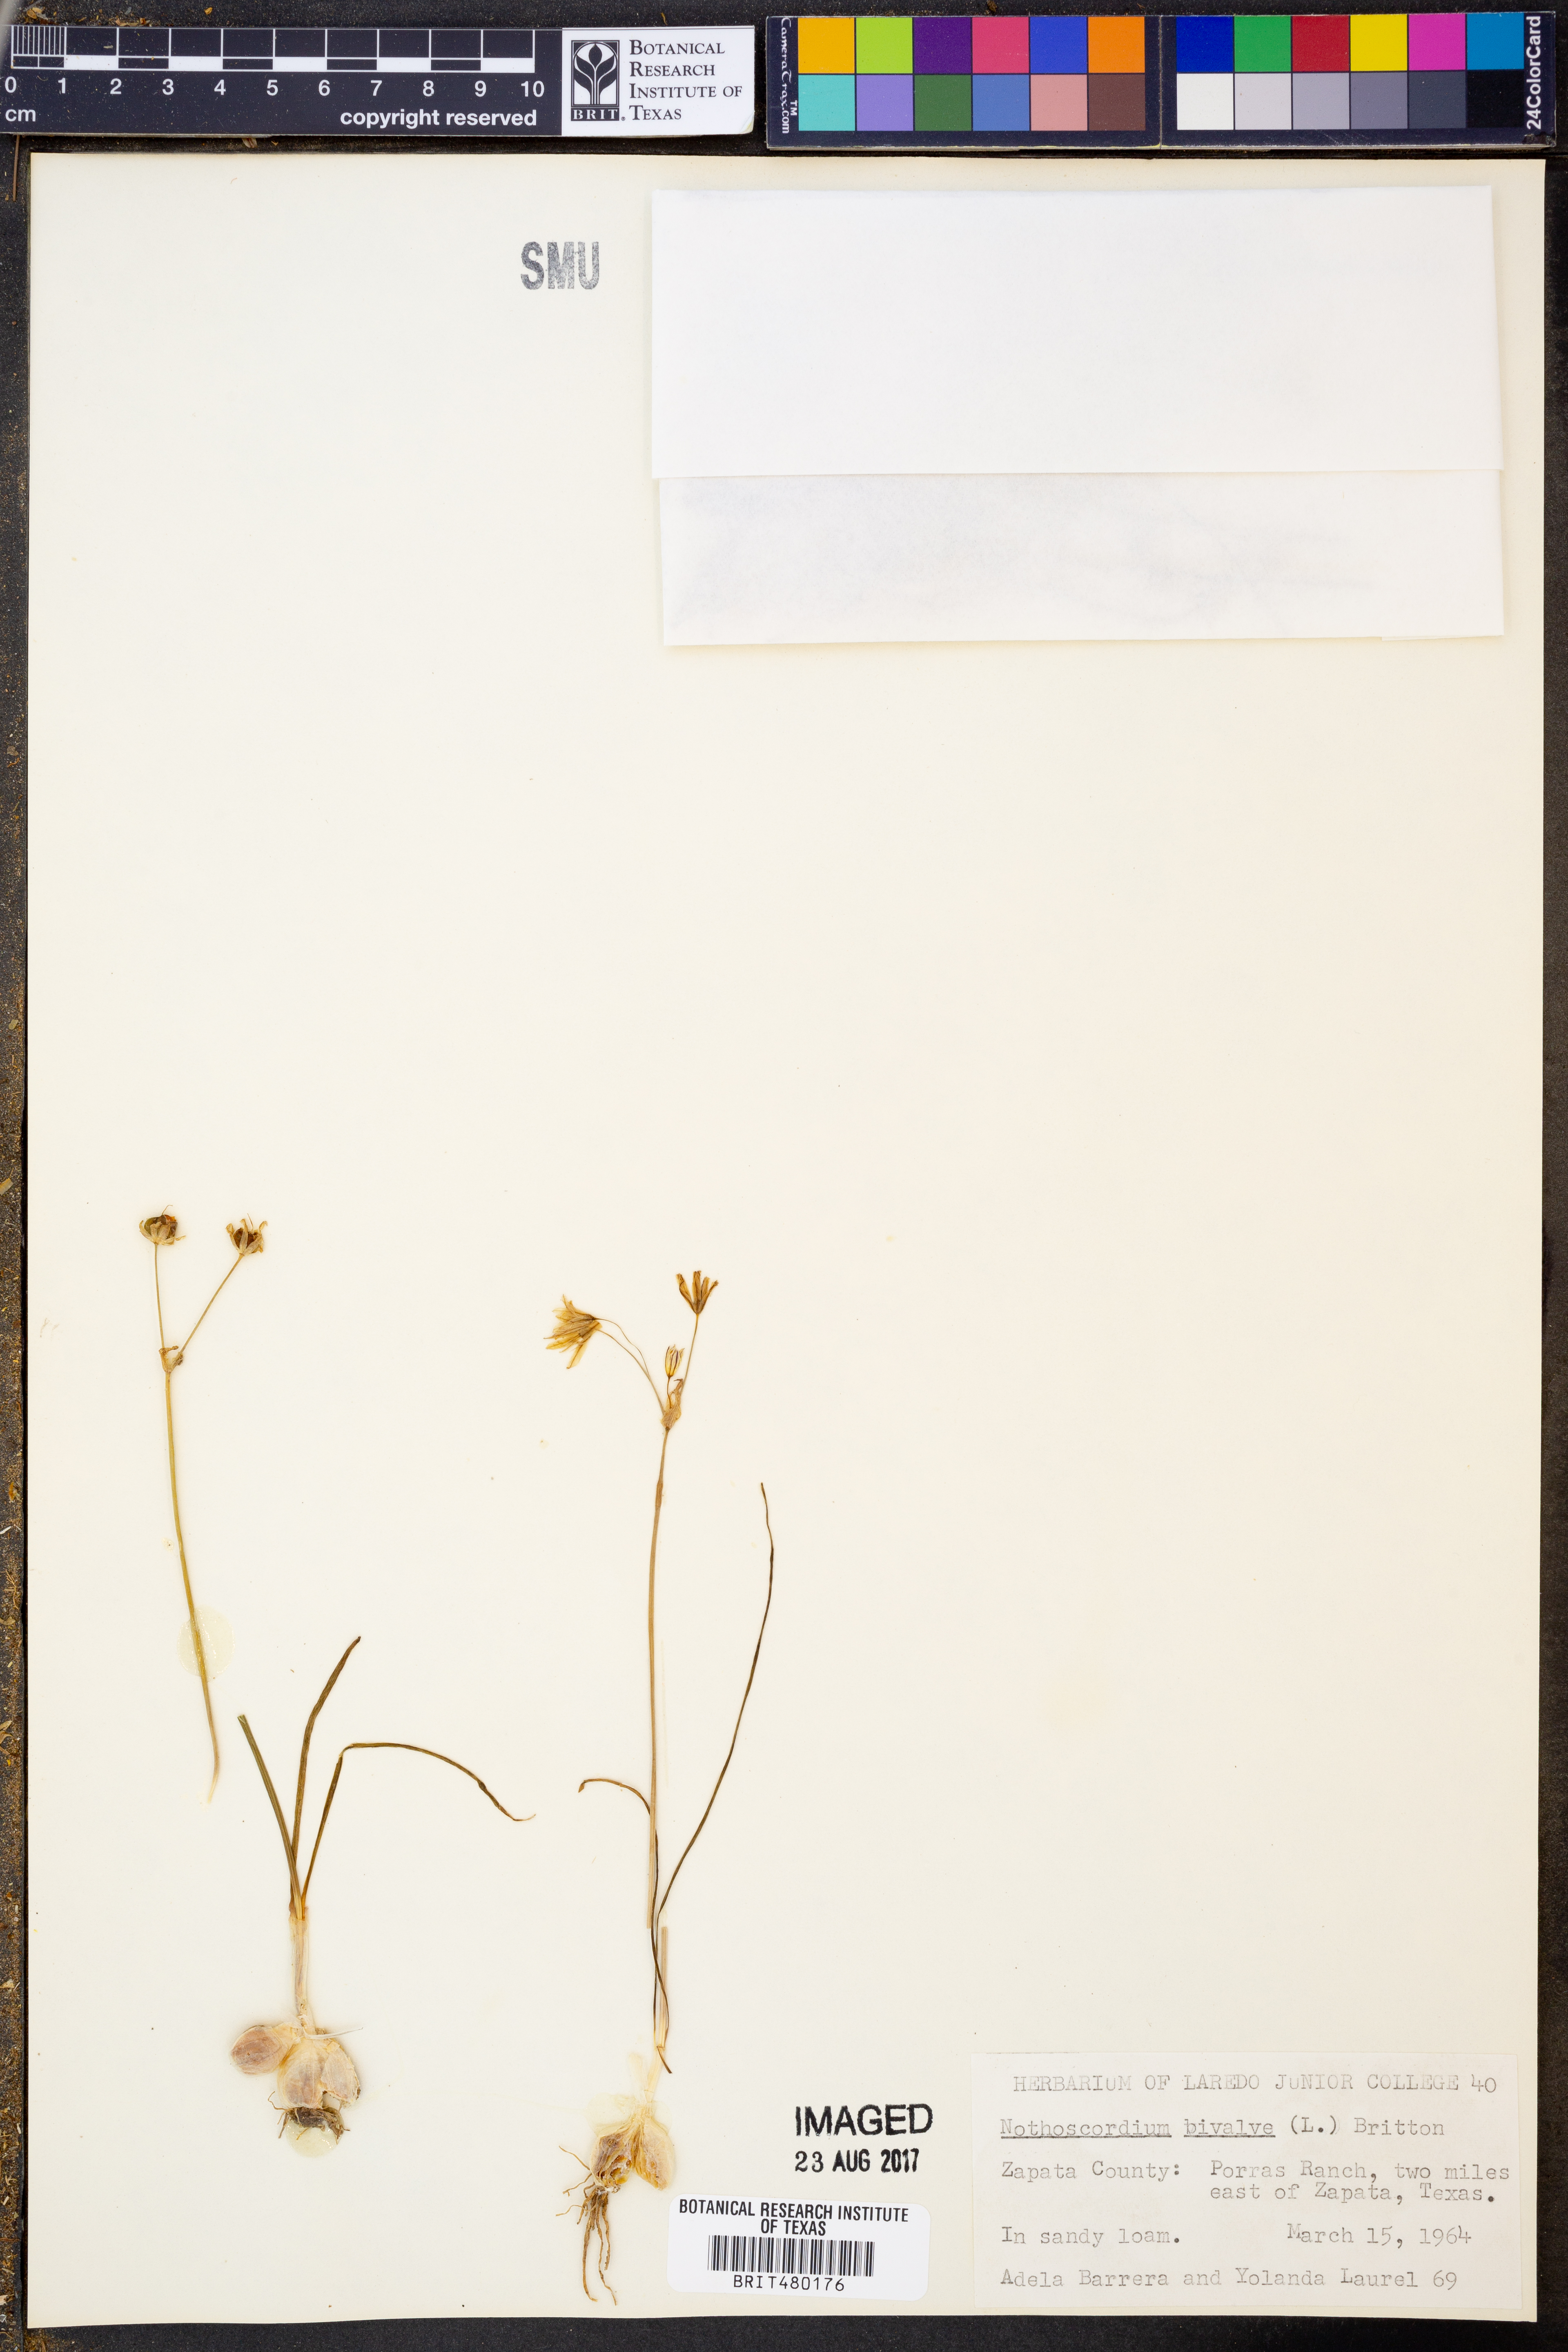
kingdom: Plantae
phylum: Tracheophyta
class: Liliopsida
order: Asparagales
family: Amaryllidaceae
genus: Nothoscordum
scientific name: Nothoscordum bivalve
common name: Crow-poison
